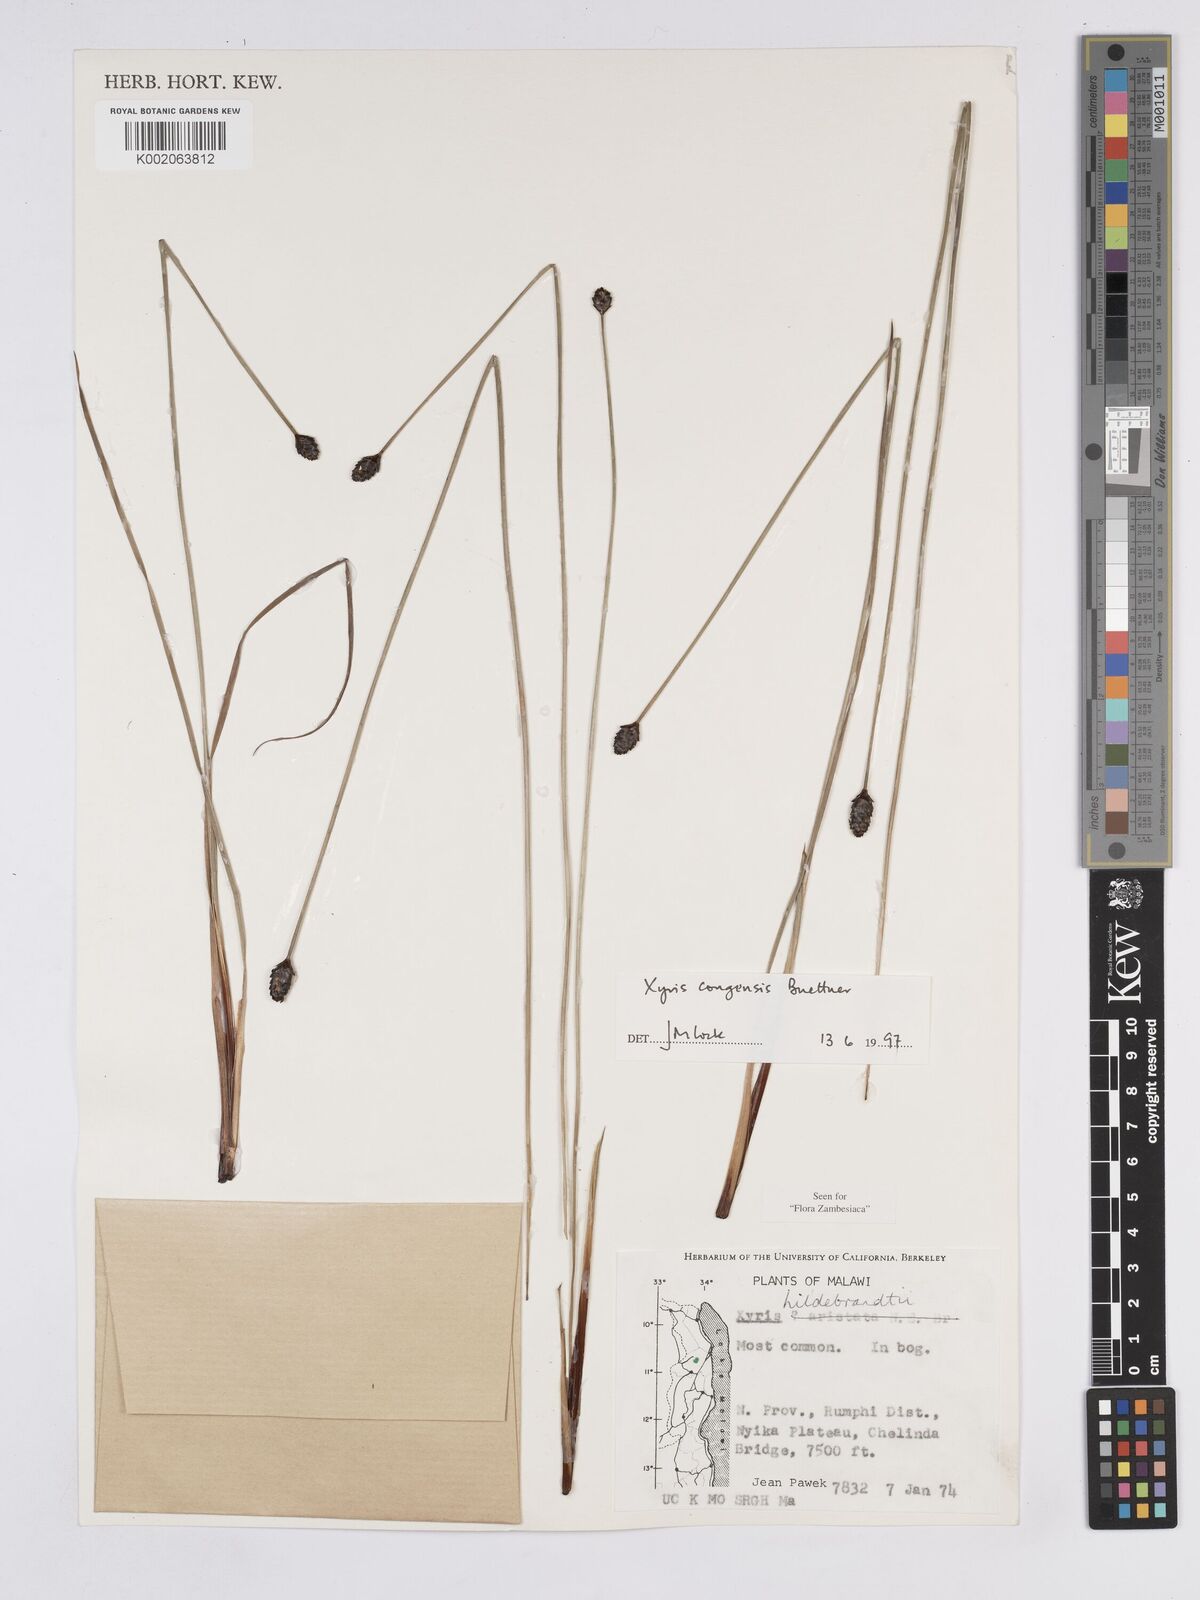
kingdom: Plantae
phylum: Tracheophyta
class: Liliopsida
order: Poales
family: Xyridaceae
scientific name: Xyridaceae
